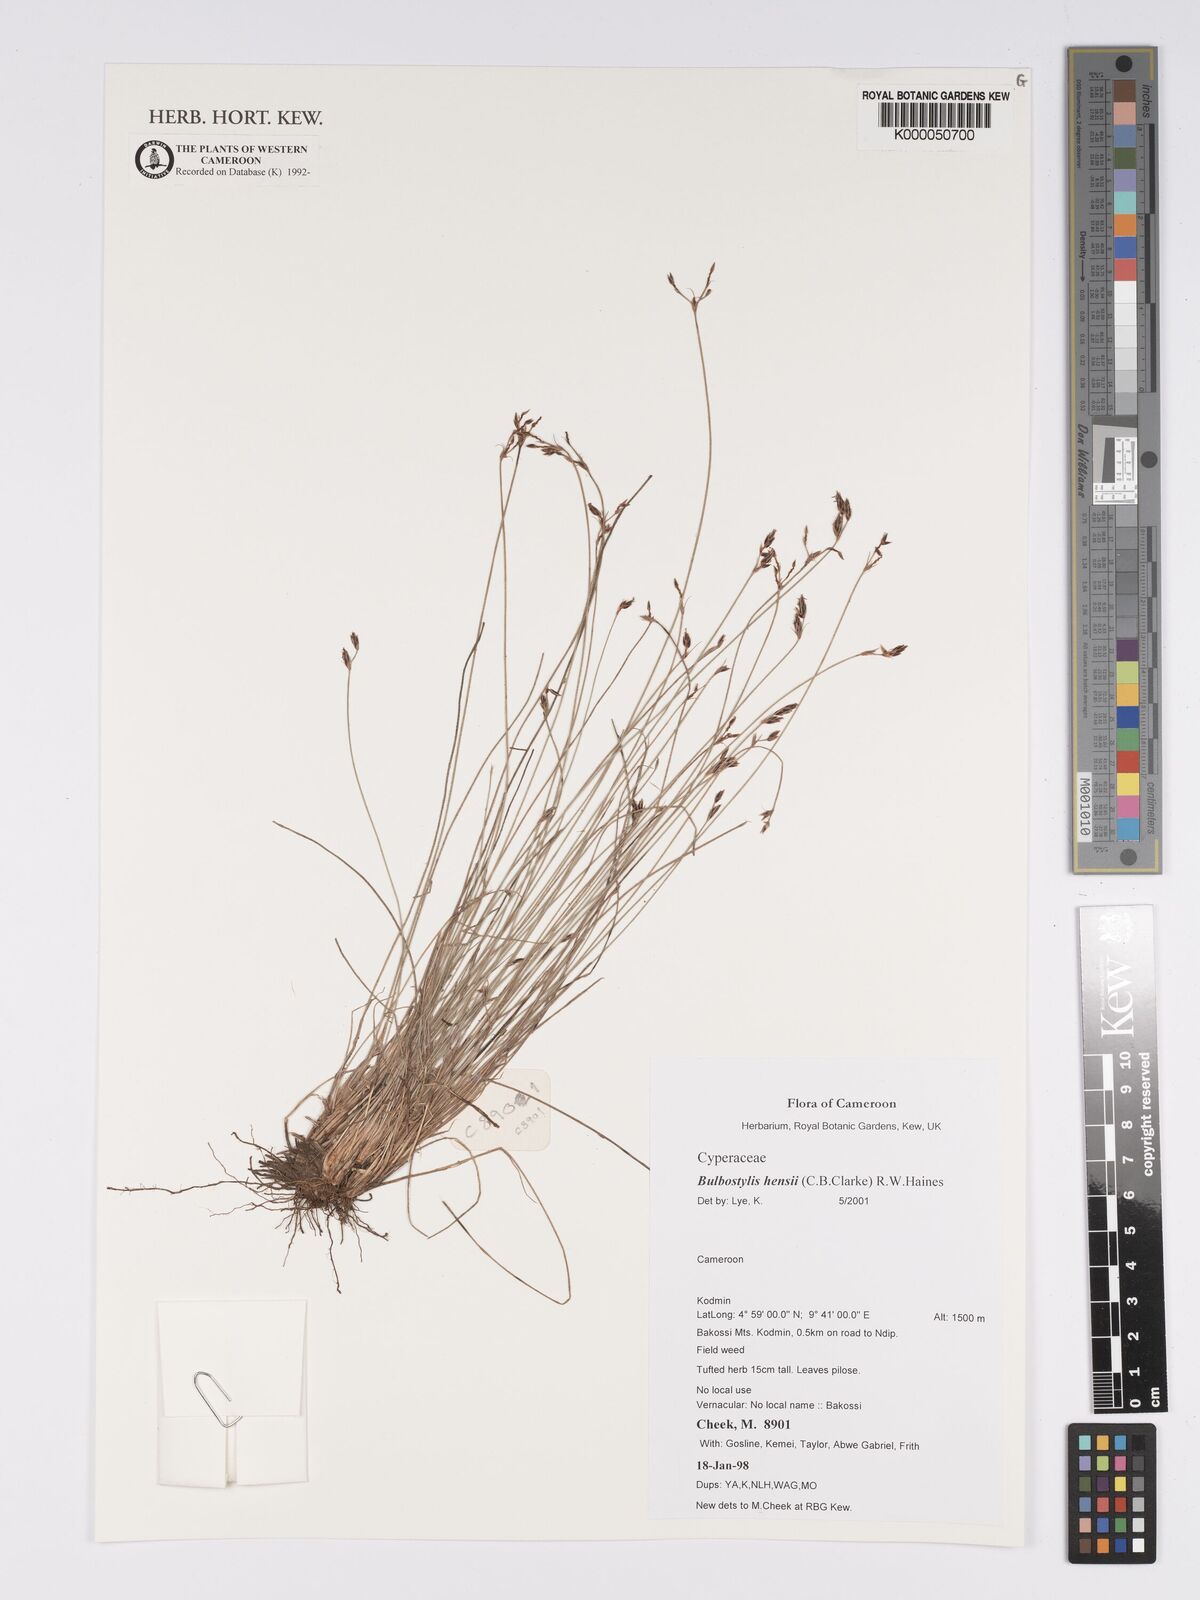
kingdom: Plantae
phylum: Tracheophyta
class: Liliopsida
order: Poales
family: Cyperaceae
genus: Bulbostylis
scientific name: Bulbostylis hensii
